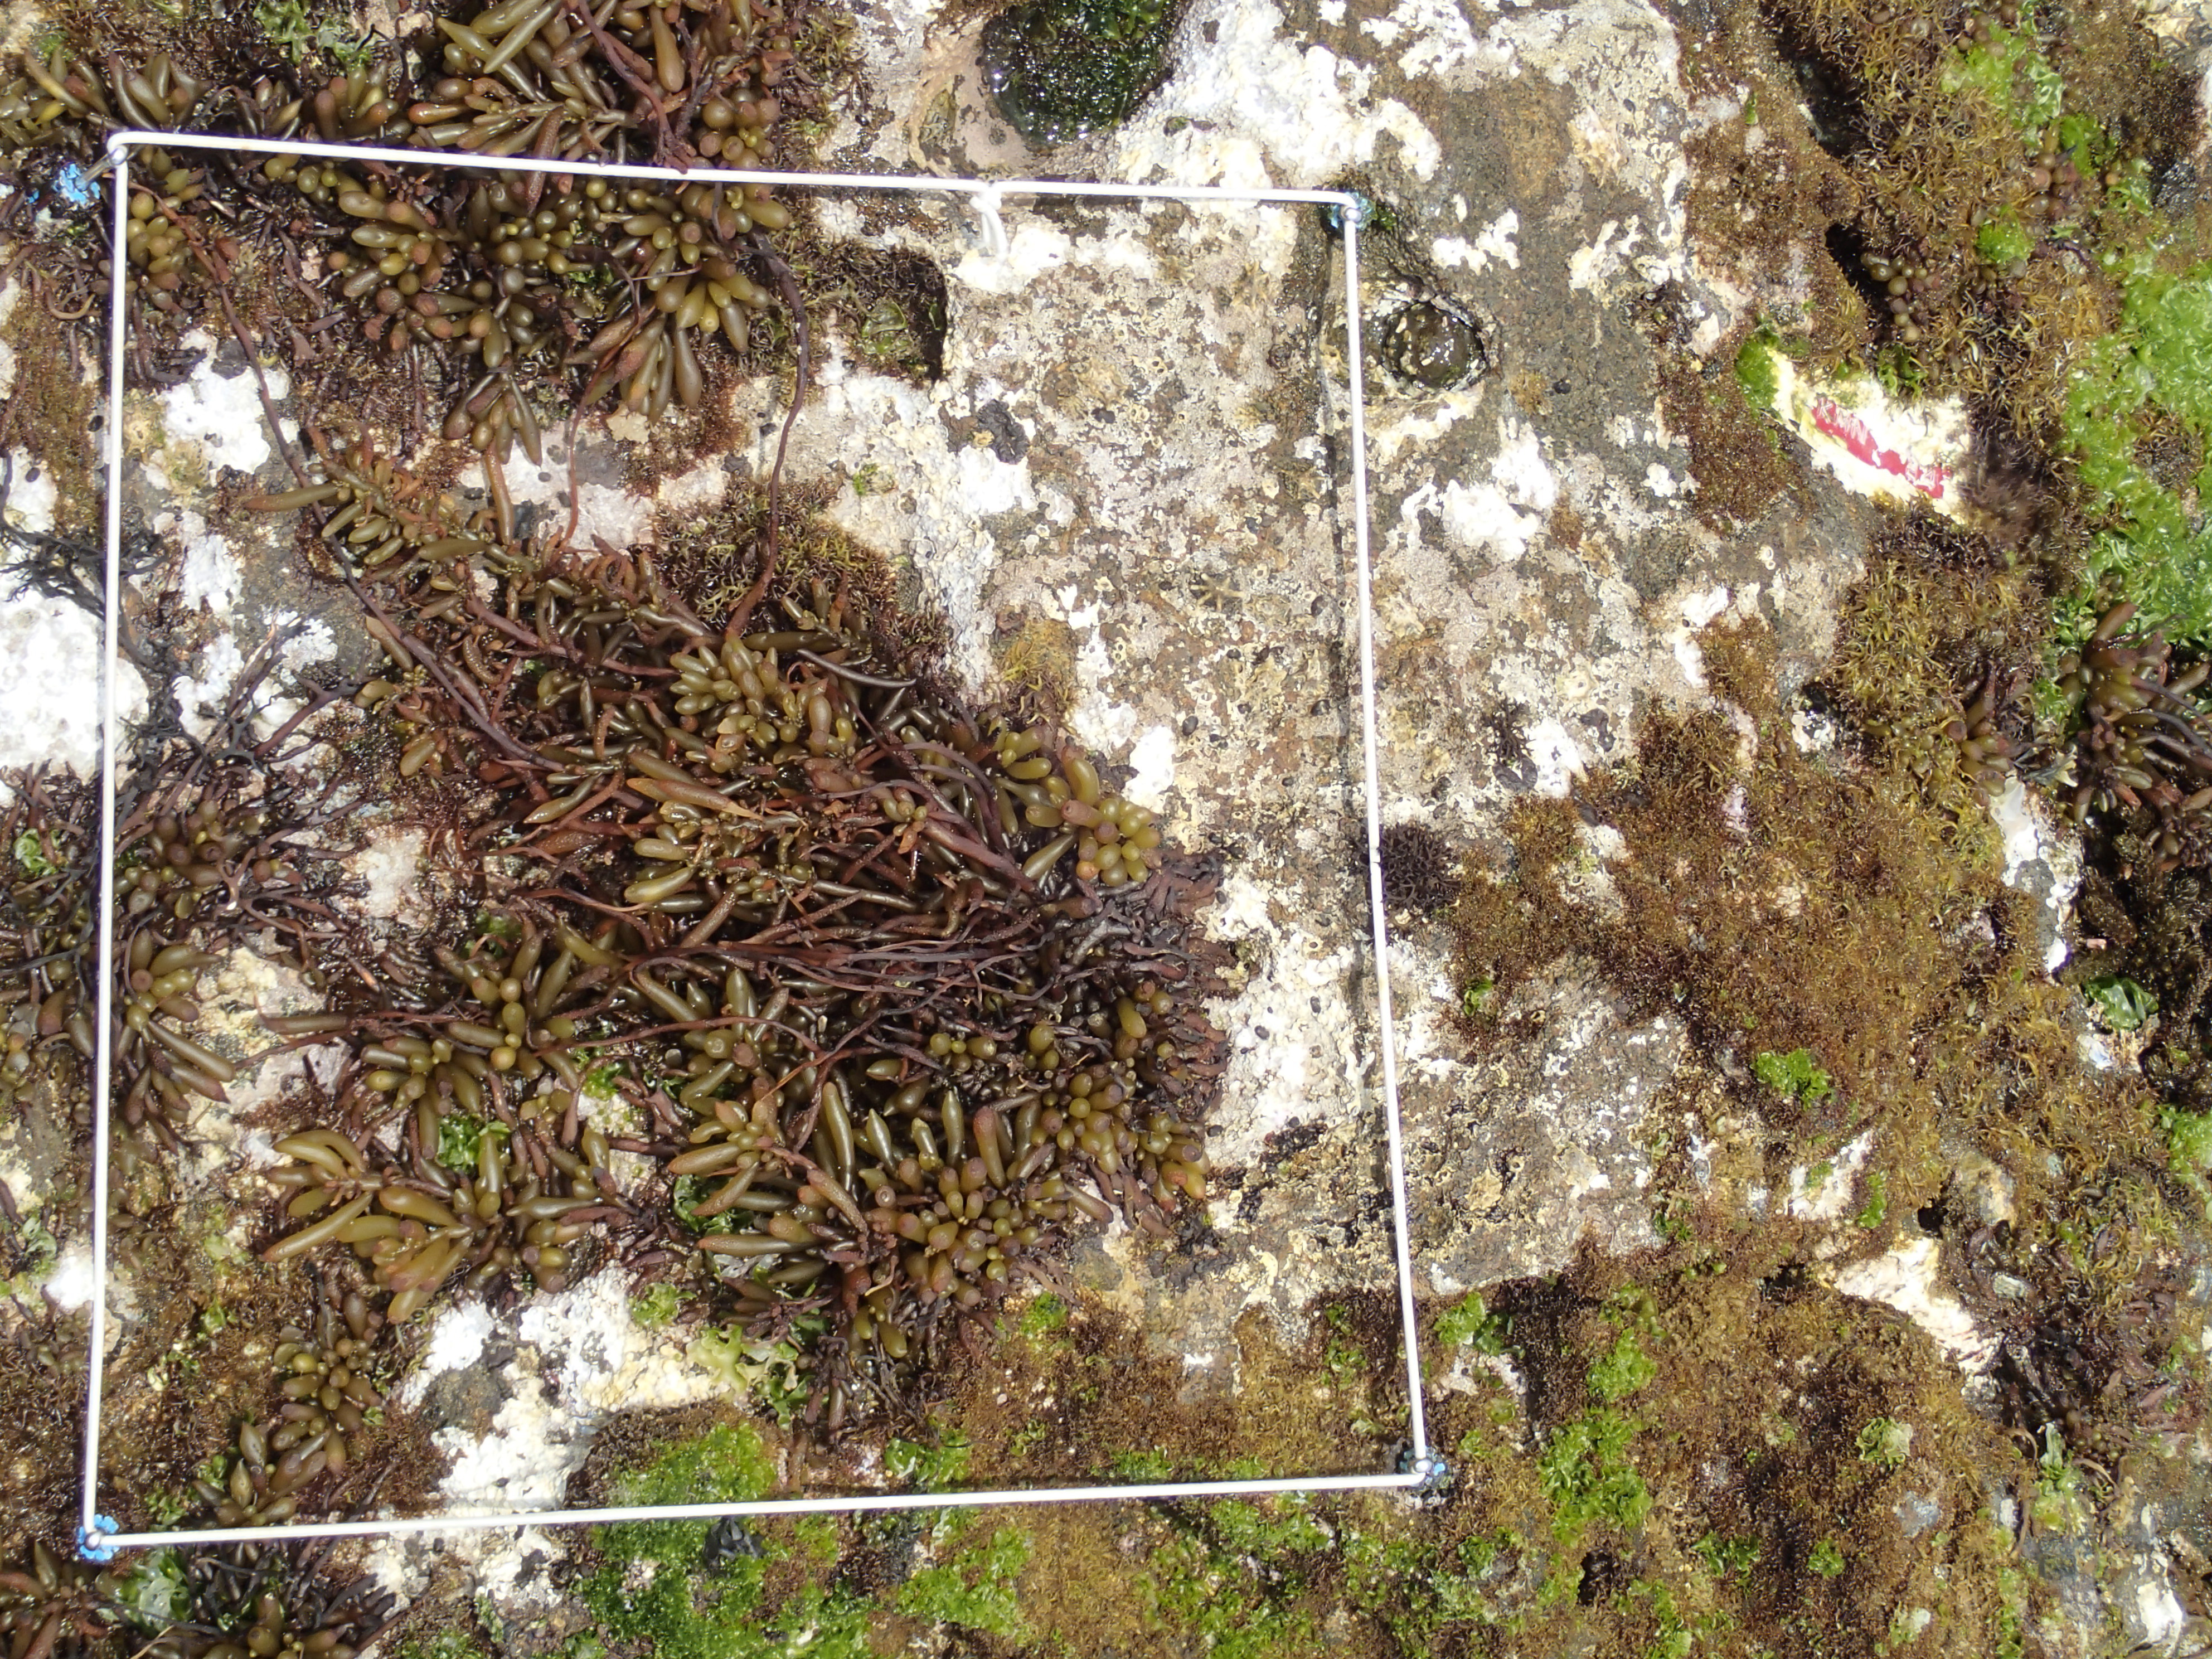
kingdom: Chromista
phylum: Ochrophyta
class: Phaeophyceae
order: Fucales
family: Sargassaceae
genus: Sargassum
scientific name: Sargassum fusiforme
